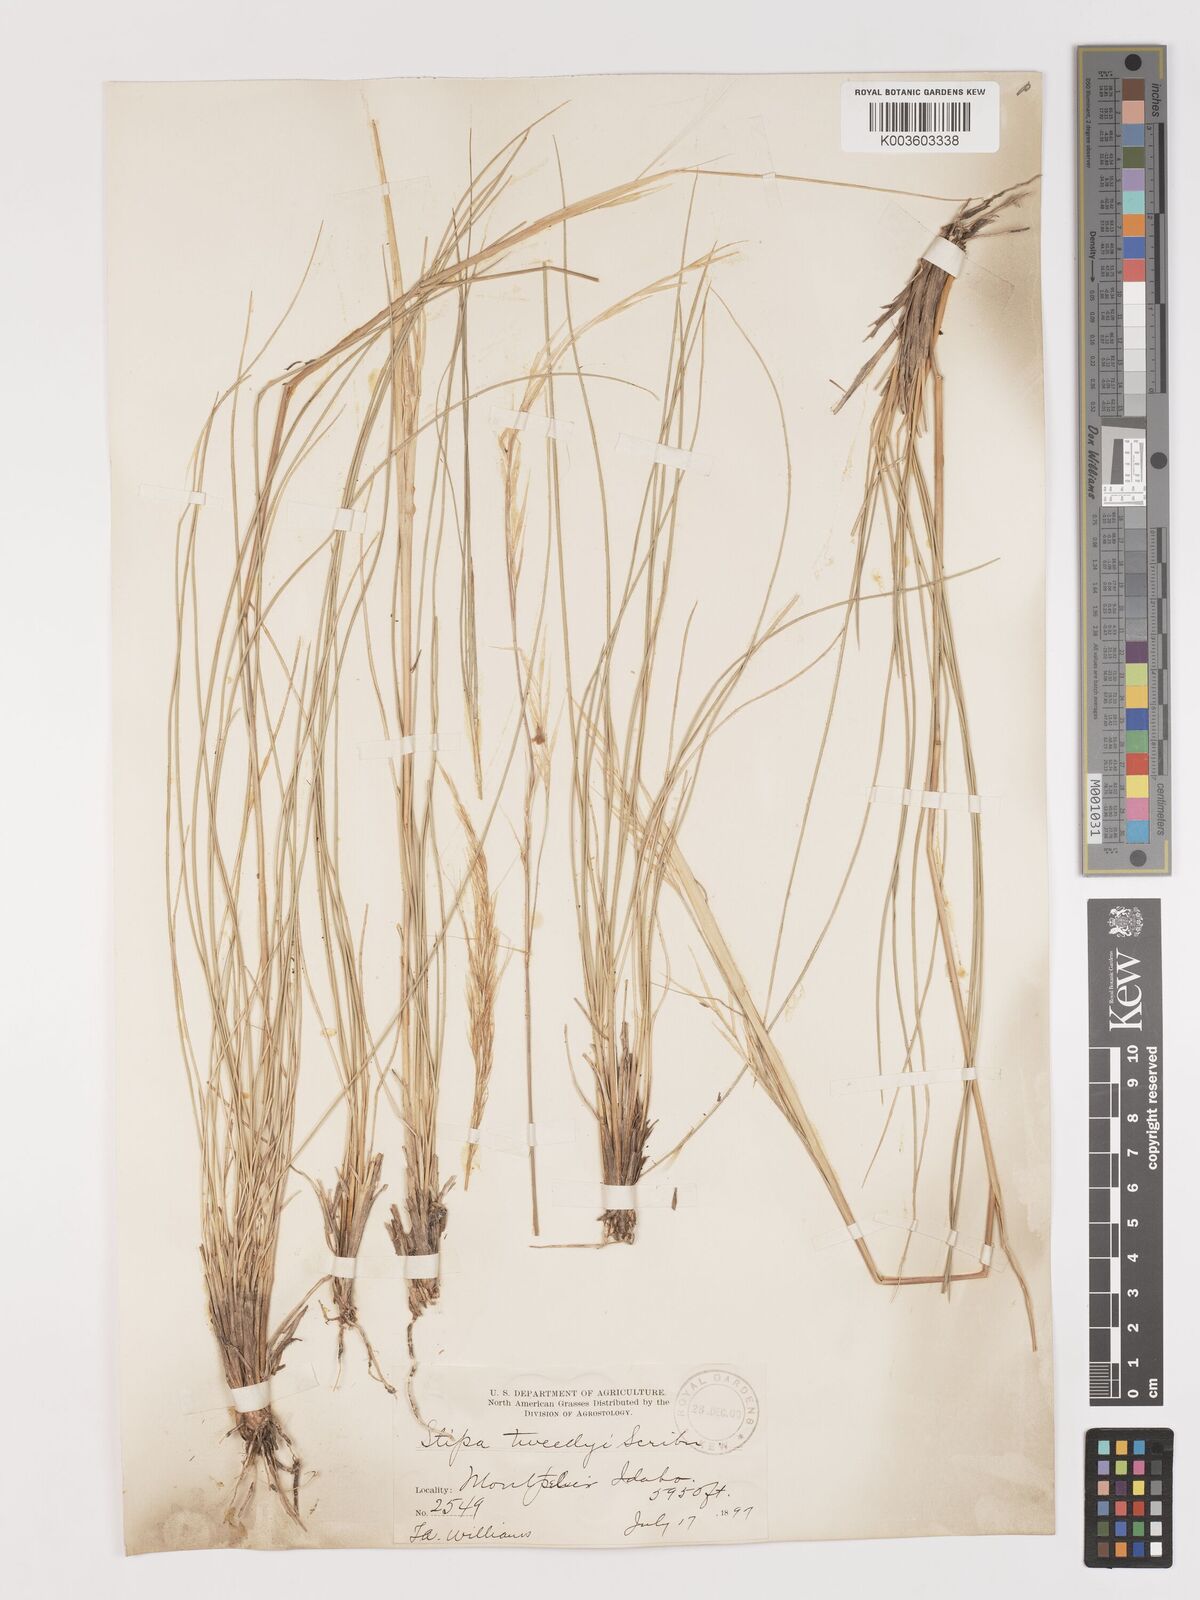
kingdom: Plantae
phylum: Tracheophyta
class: Liliopsida
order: Poales
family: Poaceae
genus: Hesperostipa
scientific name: Hesperostipa comata
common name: Needle-and-thread grass
